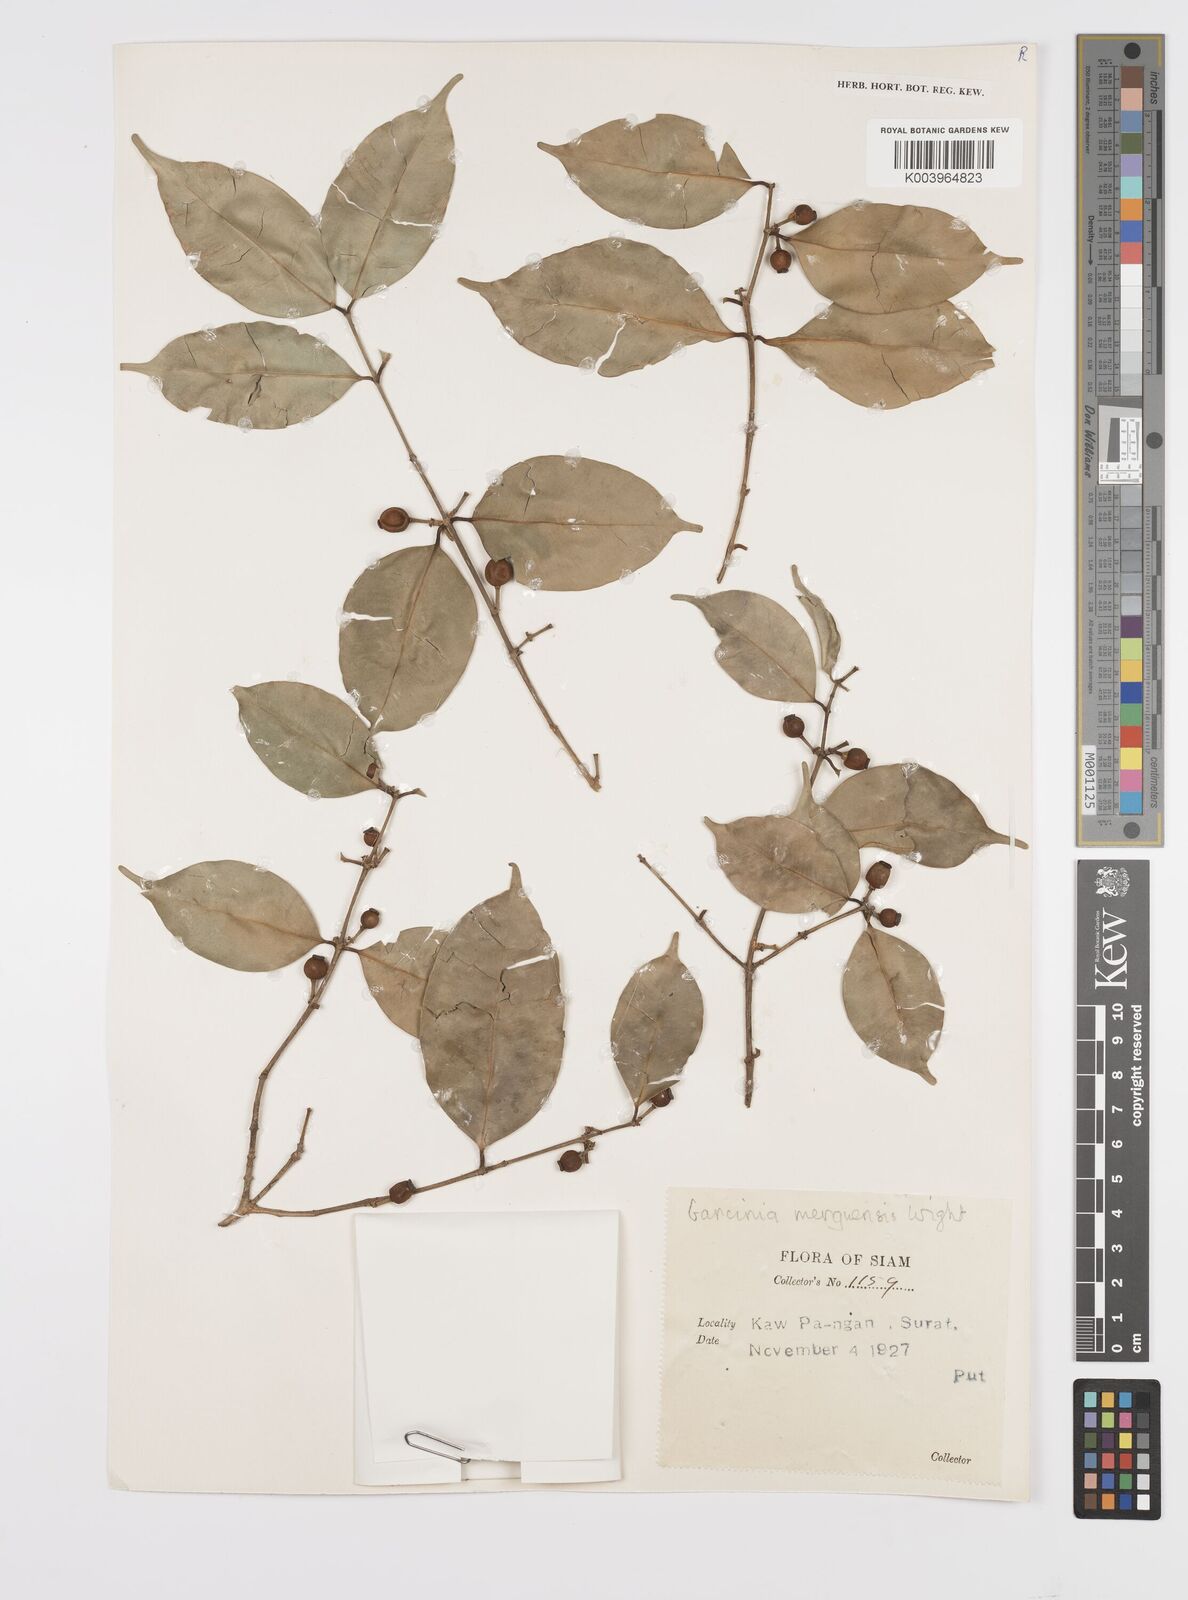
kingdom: Plantae
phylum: Tracheophyta
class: Magnoliopsida
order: Malpighiales
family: Clusiaceae
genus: Garcinia
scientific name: Garcinia
